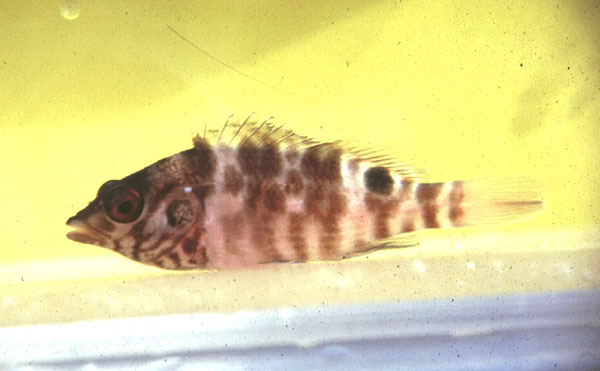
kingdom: Animalia
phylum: Chordata
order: Perciformes
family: Cirrhitidae
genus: Amblycirrhitus
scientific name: Amblycirrhitus bimacula
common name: Twinspot hawkfish
